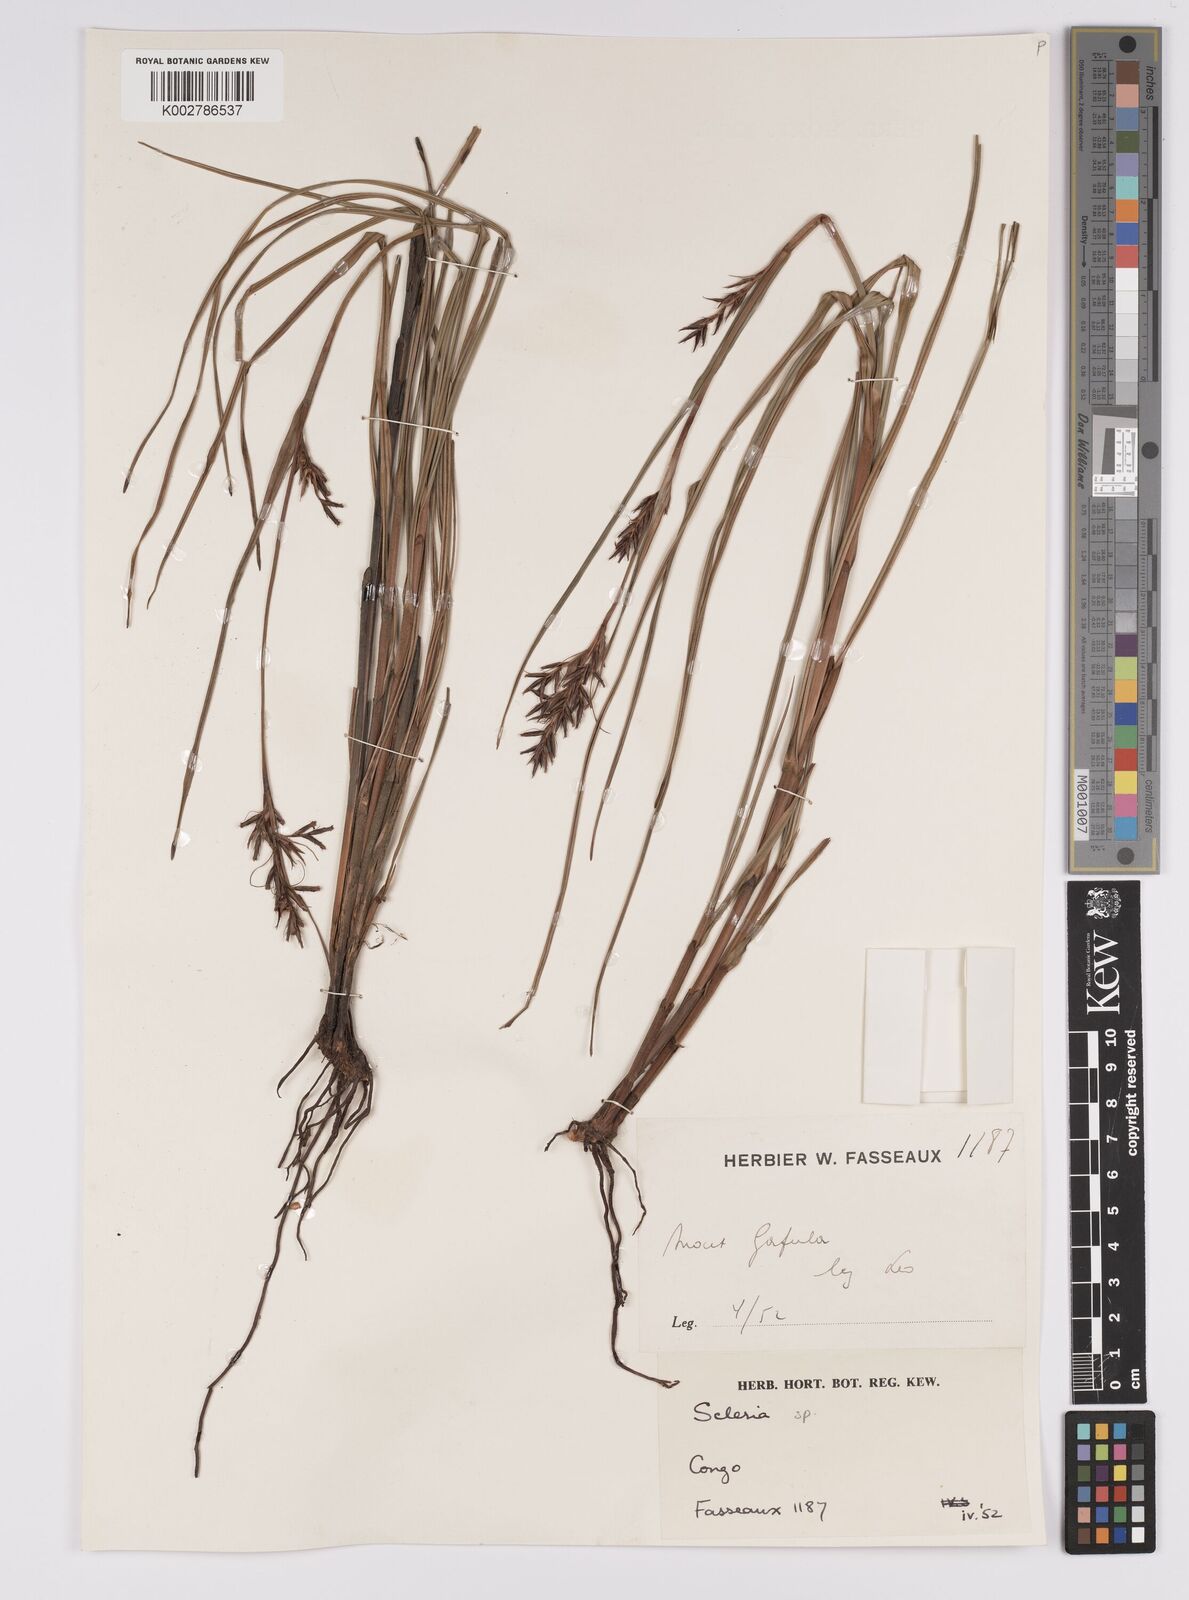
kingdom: Plantae
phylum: Tracheophyta
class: Liliopsida
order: Poales
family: Cyperaceae
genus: Scleria
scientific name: Scleria induta
